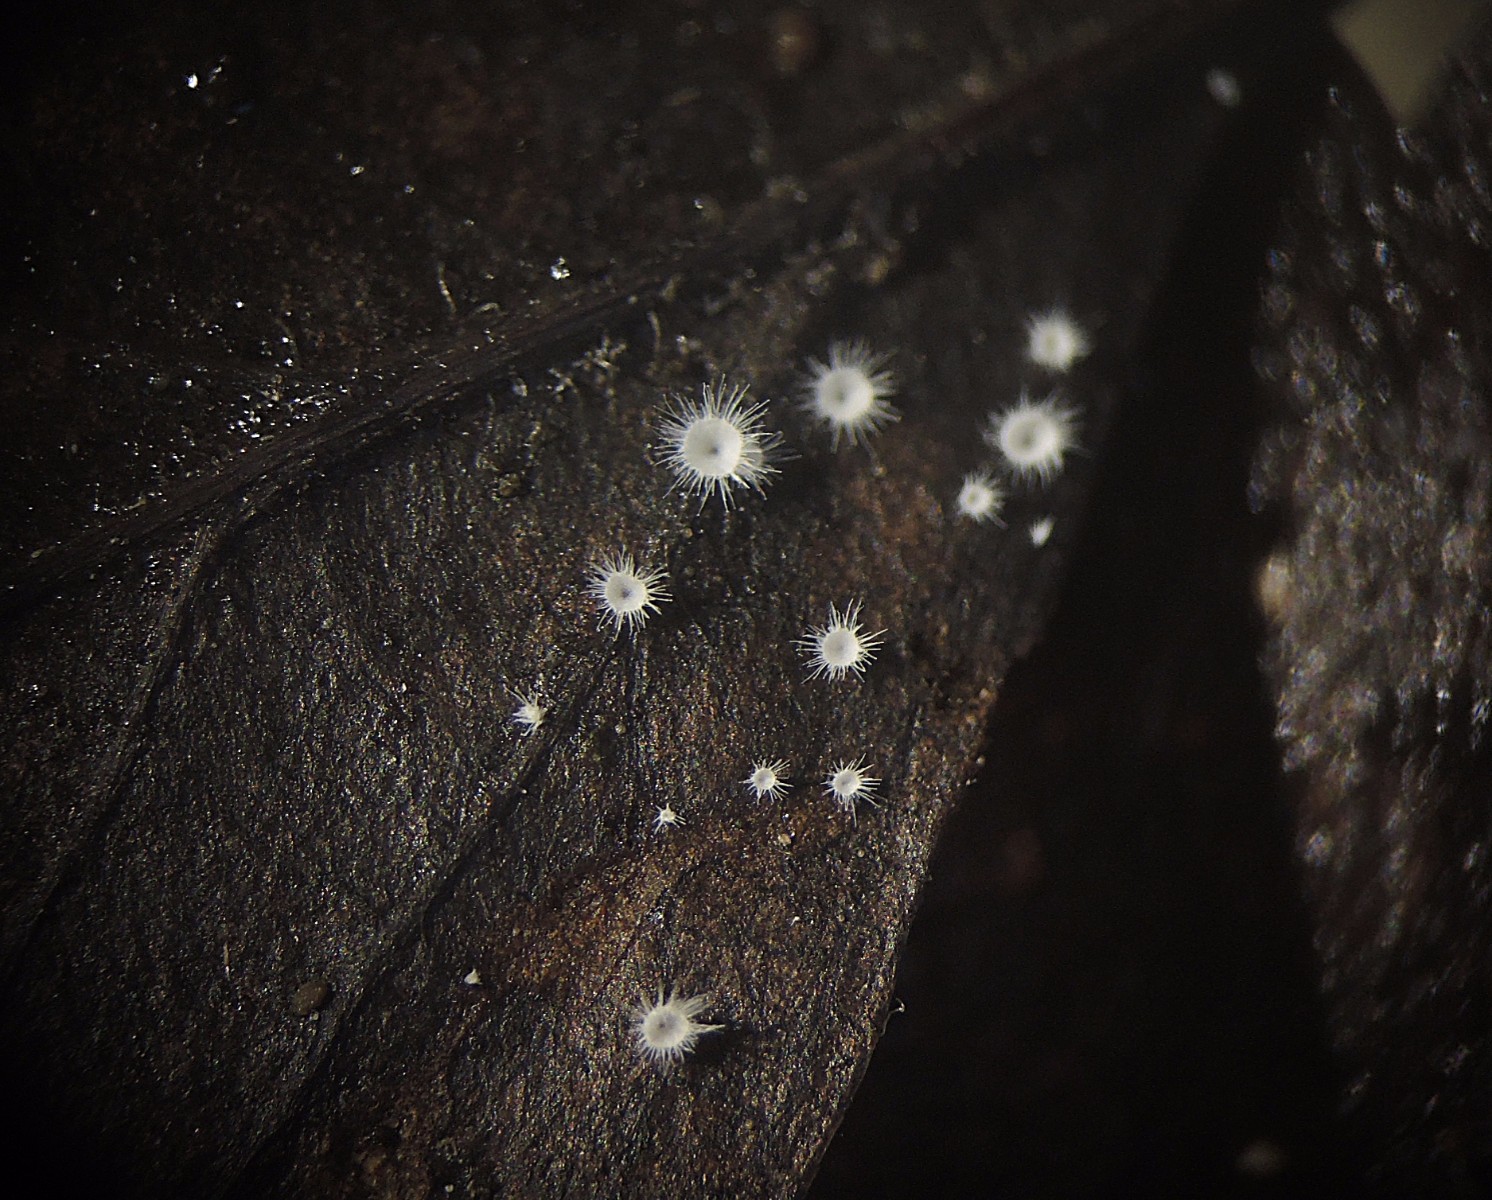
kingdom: Fungi
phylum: Basidiomycota
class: Agaricomycetes
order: Agaricales
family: Niaceae
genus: Flagelloscypha
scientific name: Flagelloscypha niveola
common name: pjusket hængeskål
